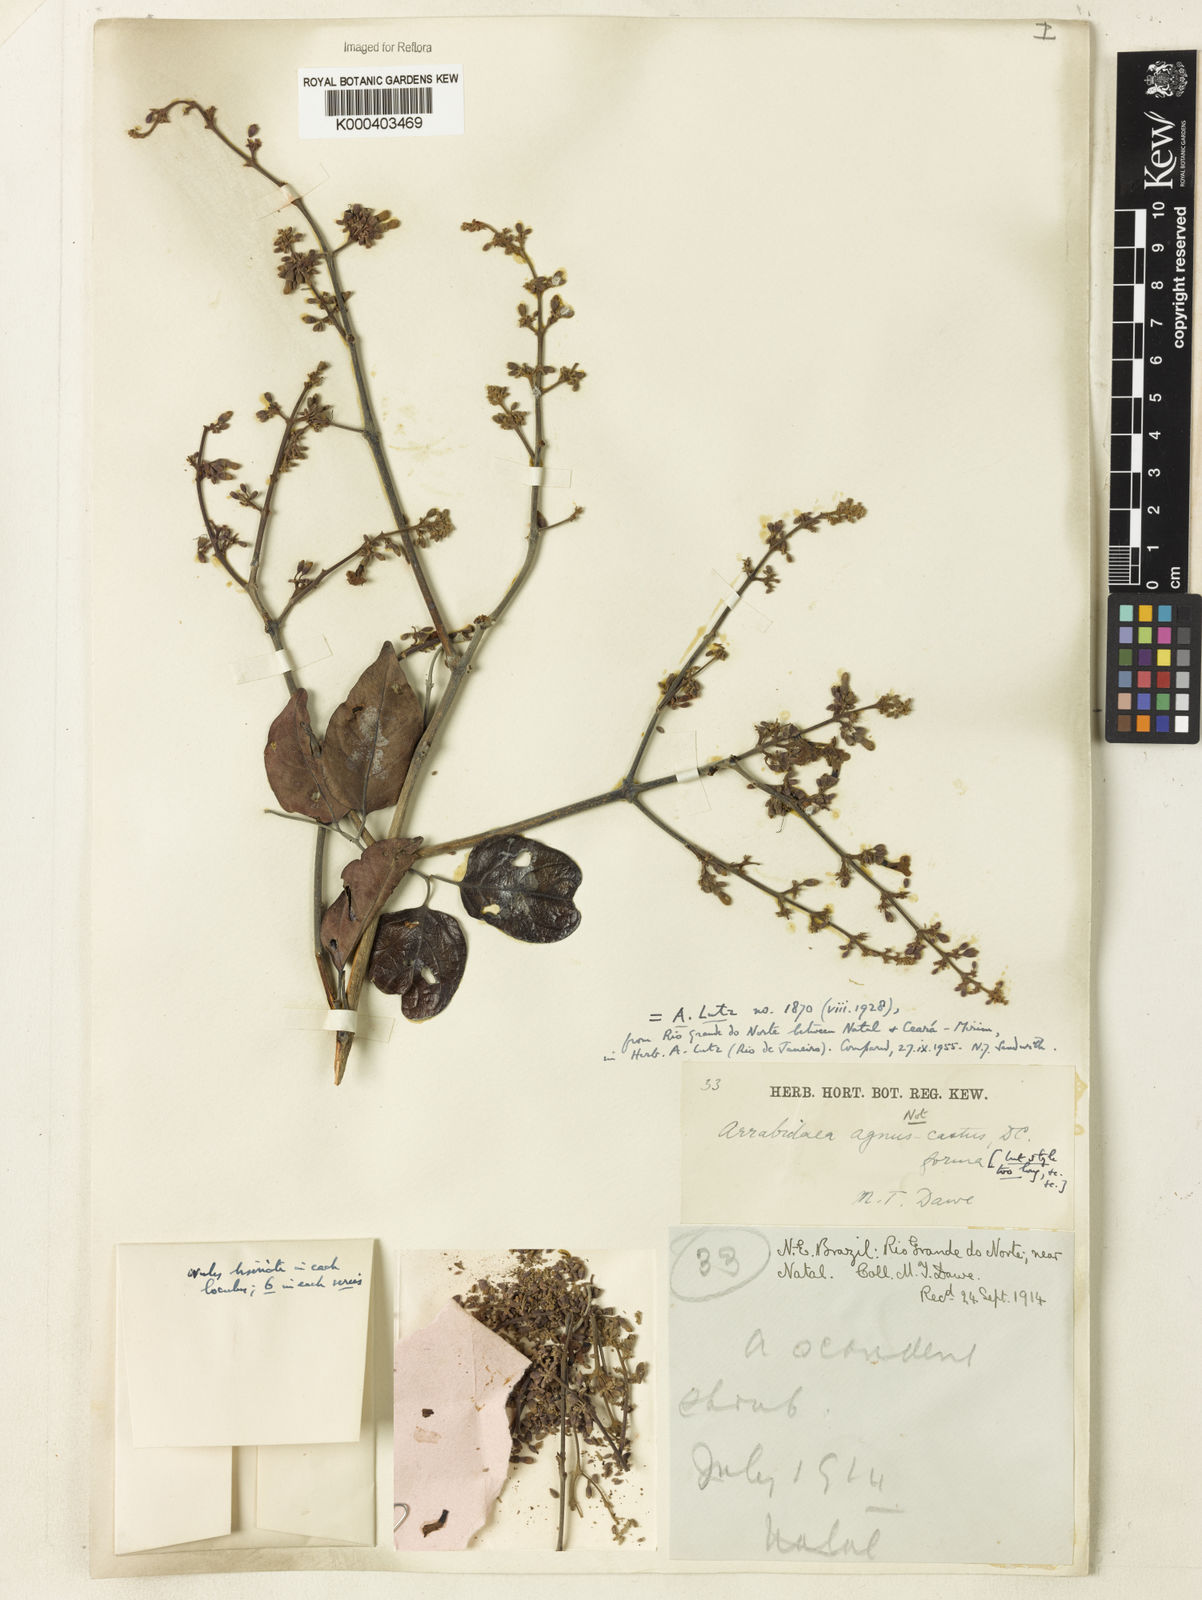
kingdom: Plantae
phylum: Tracheophyta
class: Magnoliopsida
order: Rosales
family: Rhamnaceae
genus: Arrabidaea
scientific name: Arrabidaea
